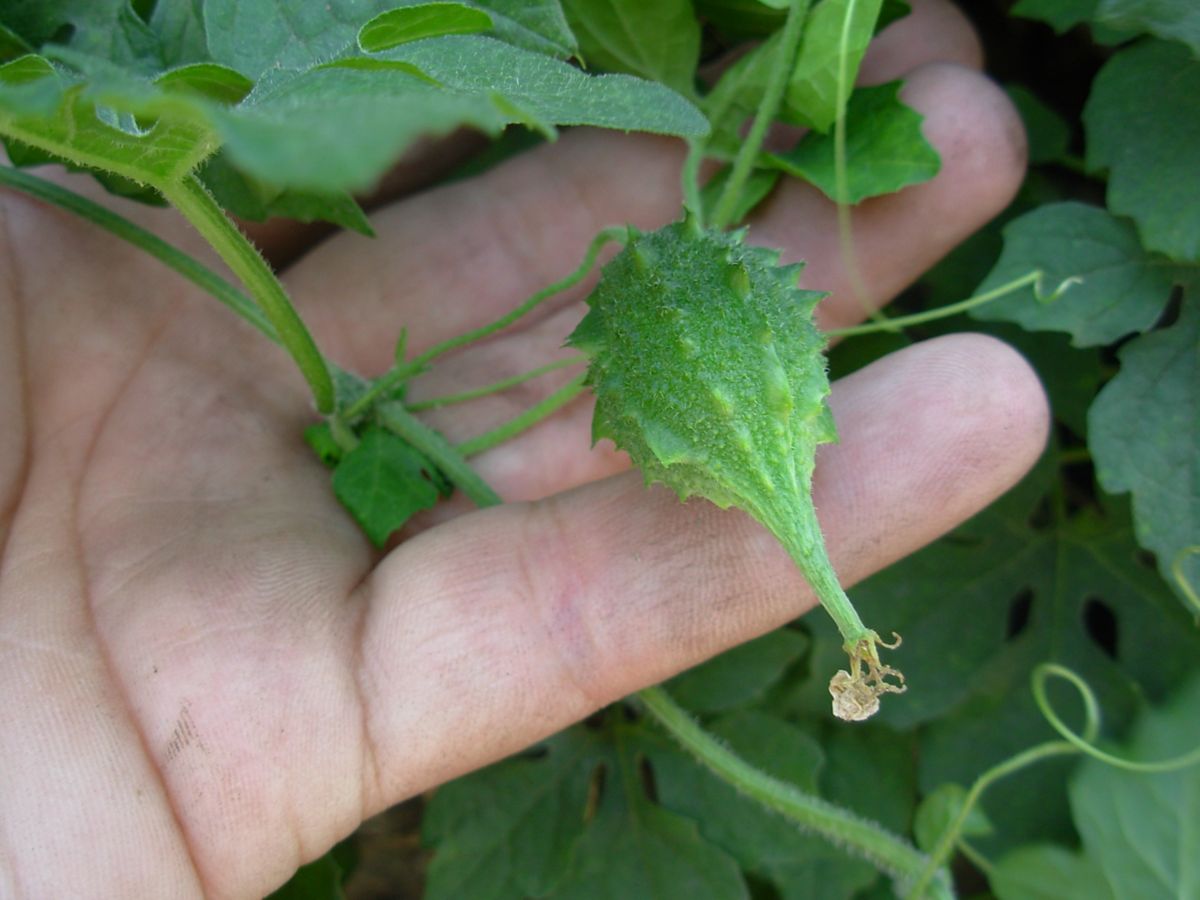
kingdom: Plantae
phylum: Tracheophyta
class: Magnoliopsida
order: Cucurbitales
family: Cucurbitaceae
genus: Momordica
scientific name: Momordica charantia
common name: Balsampear
